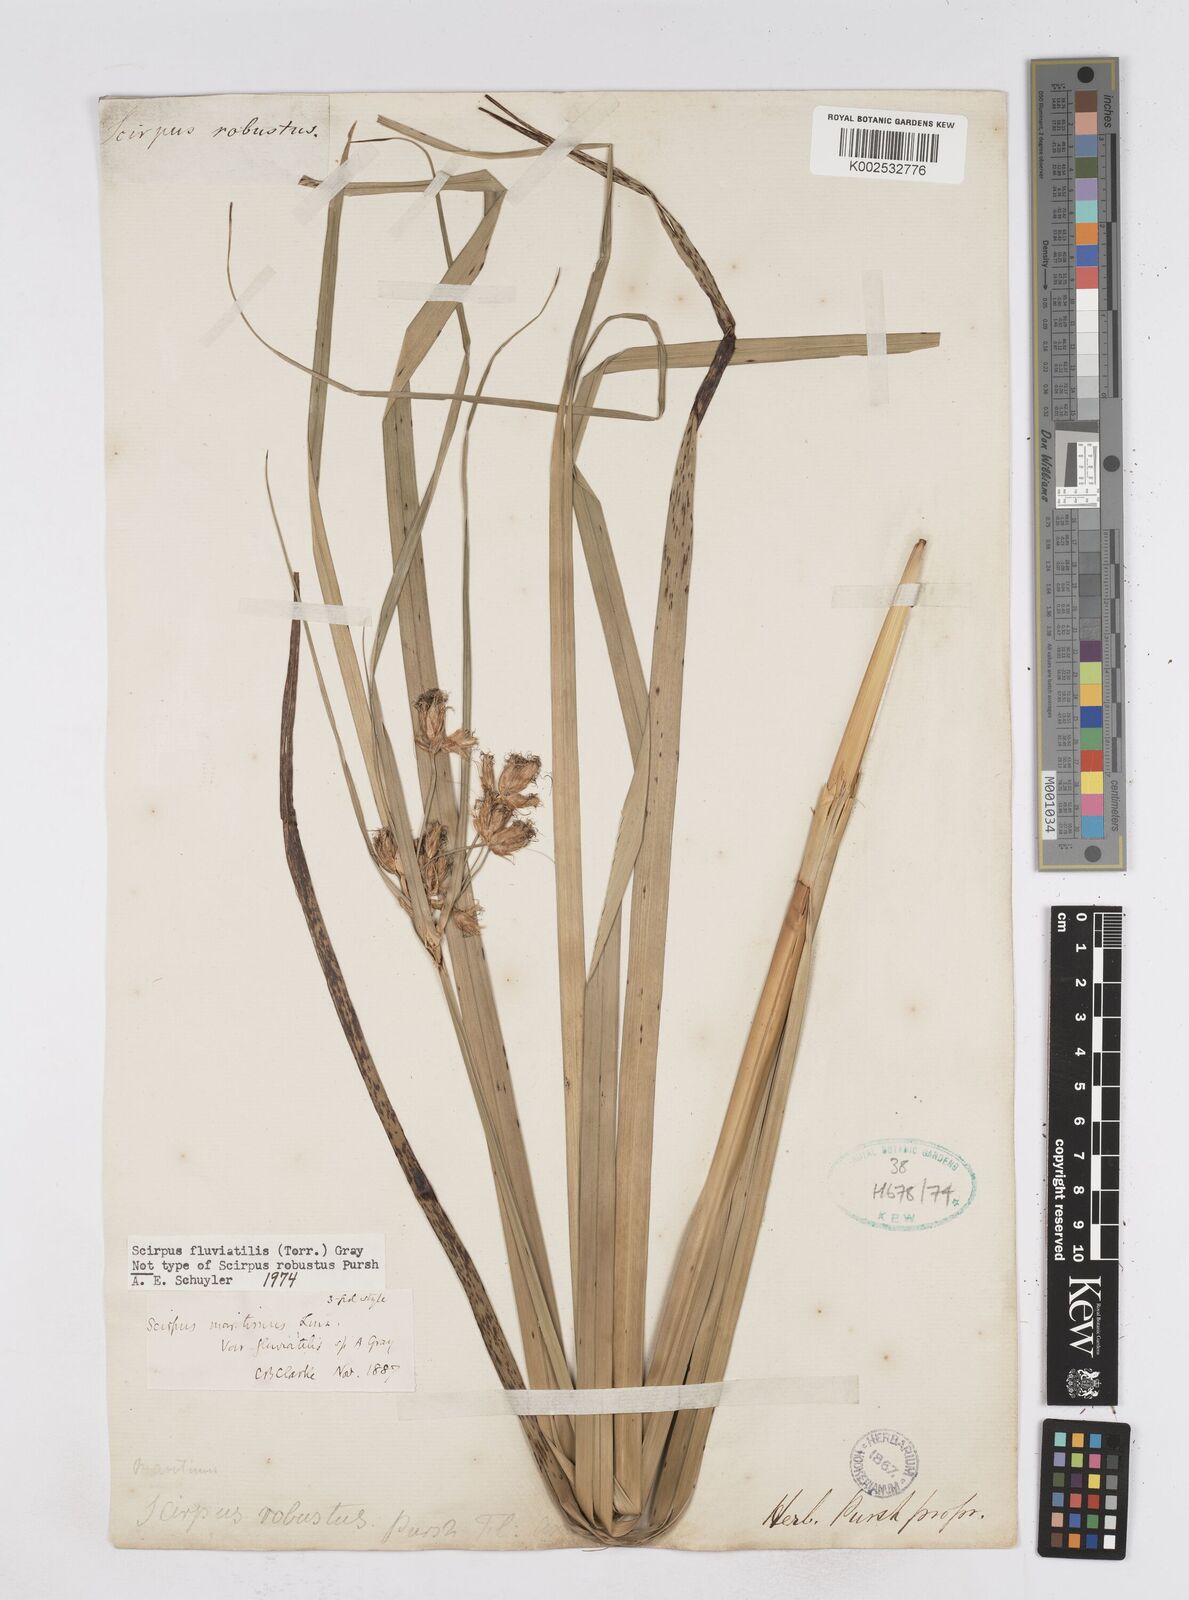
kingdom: Plantae
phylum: Tracheophyta
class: Liliopsida
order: Poales
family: Cyperaceae
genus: Bolboschoenus
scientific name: Bolboschoenus
